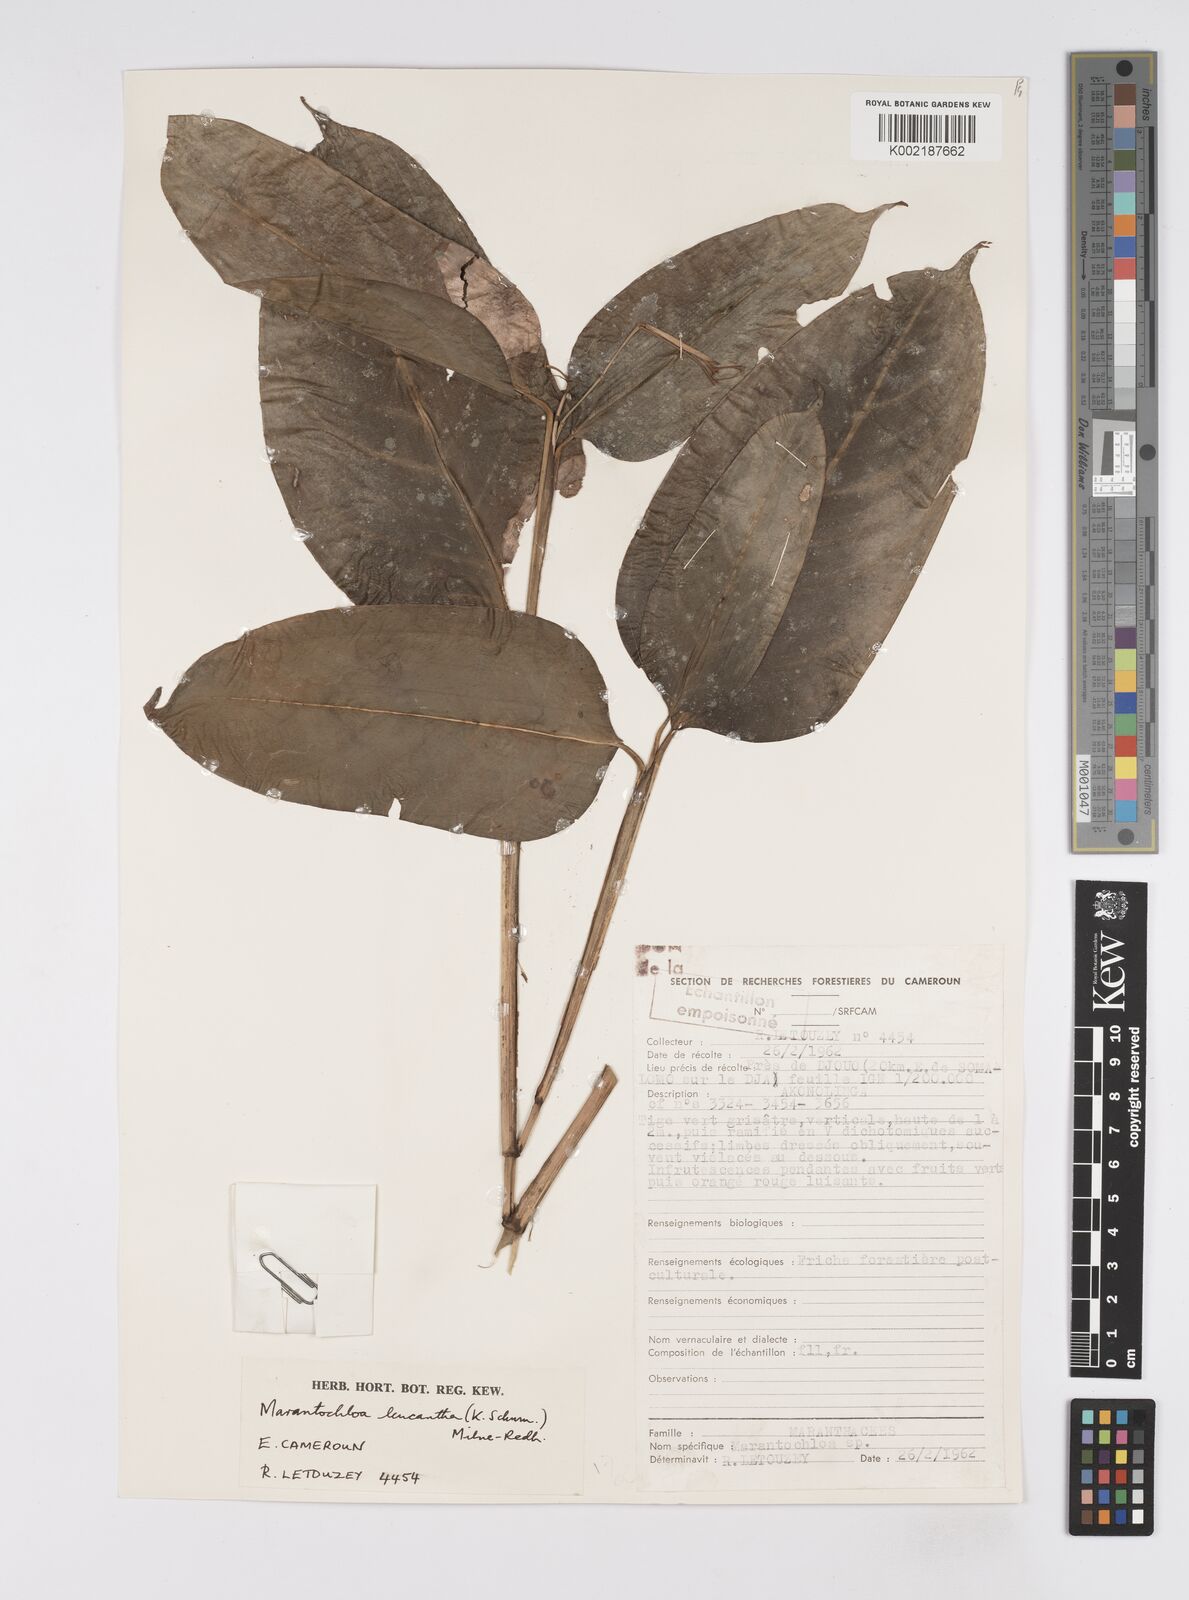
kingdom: Plantae
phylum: Tracheophyta
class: Liliopsida
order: Zingiberales
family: Marantaceae
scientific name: Marantaceae
